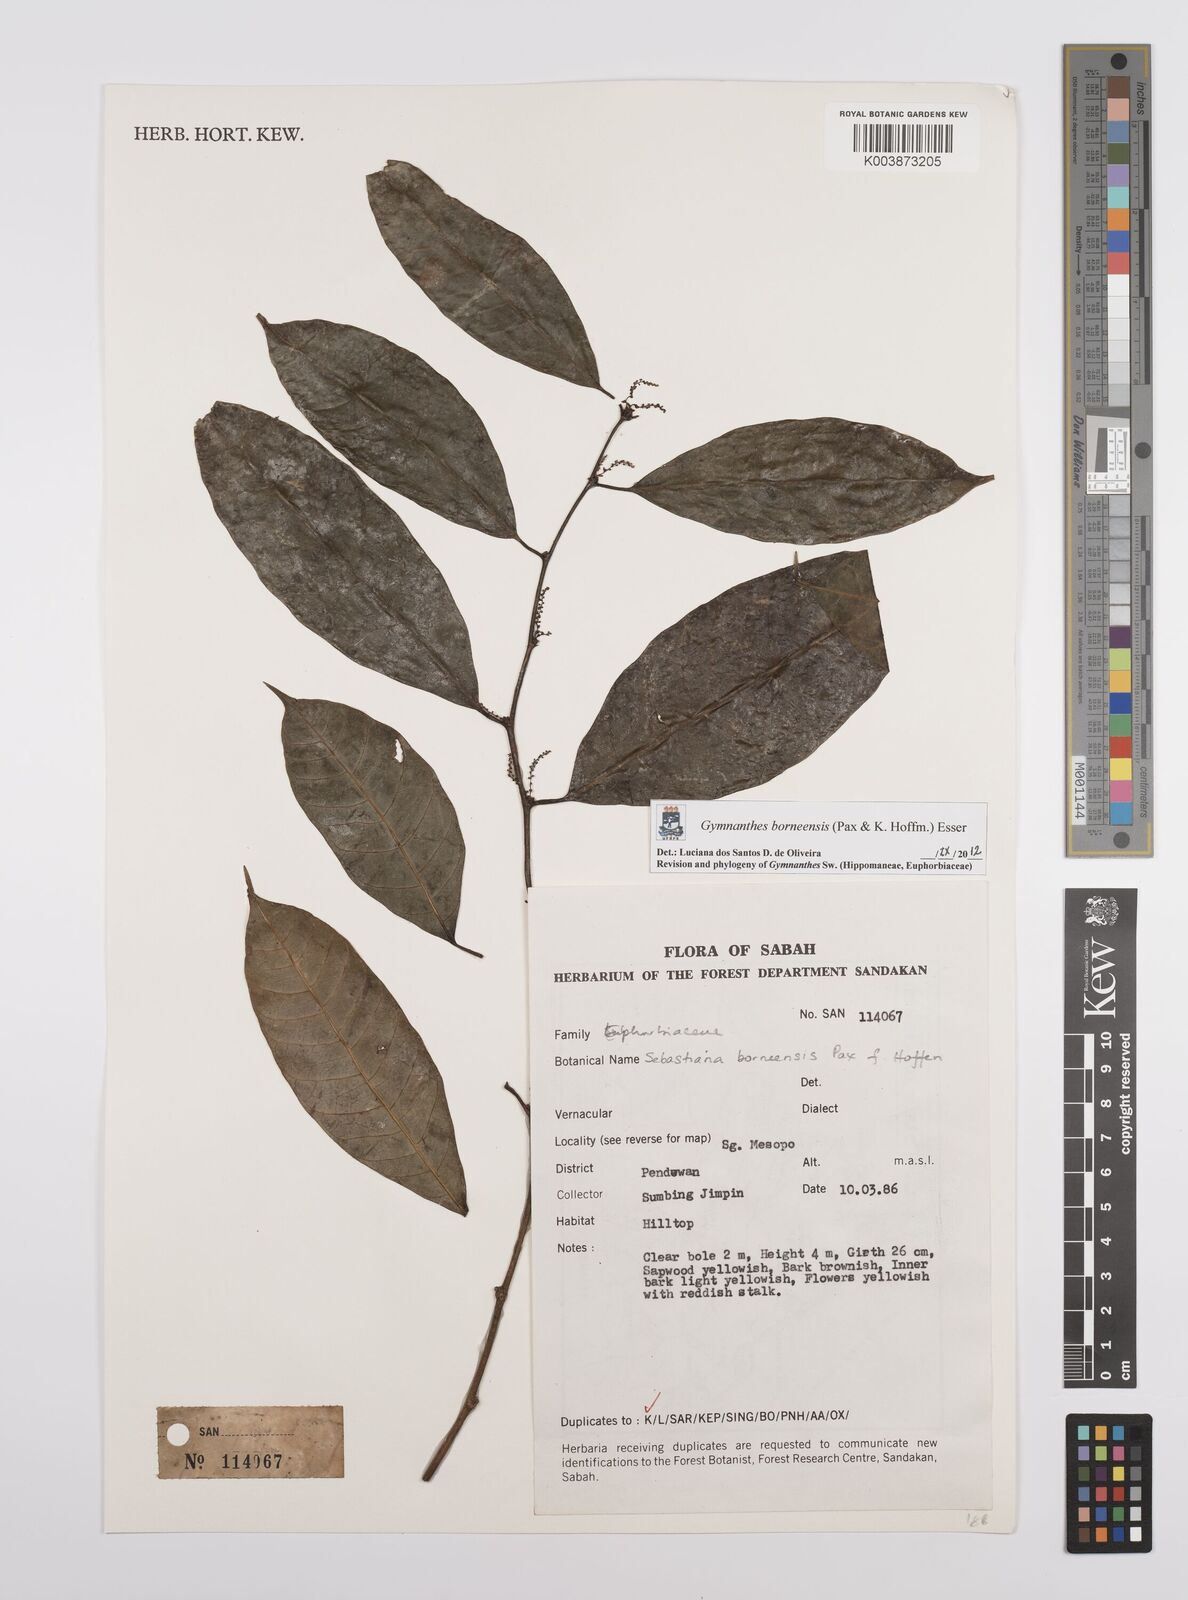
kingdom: Plantae
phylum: Tracheophyta
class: Magnoliopsida
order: Malpighiales
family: Euphorbiaceae
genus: Gymnanthes
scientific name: Gymnanthes borneensis
